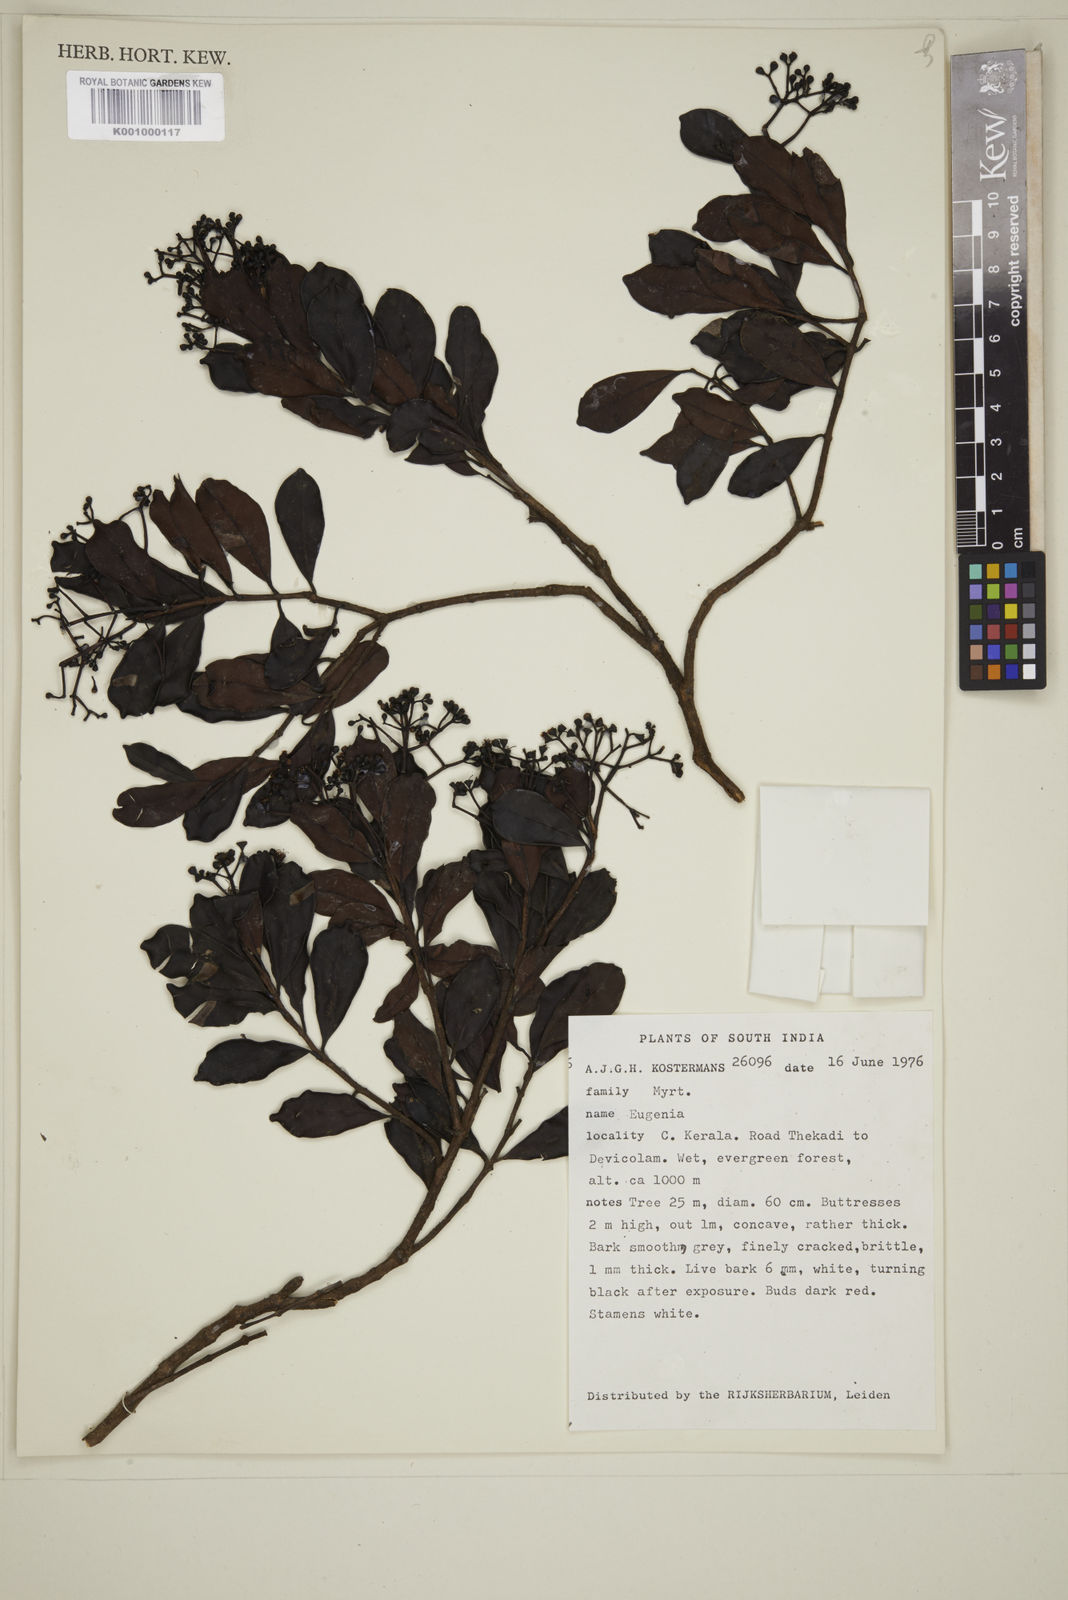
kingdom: Plantae
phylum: Tracheophyta
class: Magnoliopsida
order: Myrtales
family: Myrtaceae
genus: Eugenia
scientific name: Eugenia
